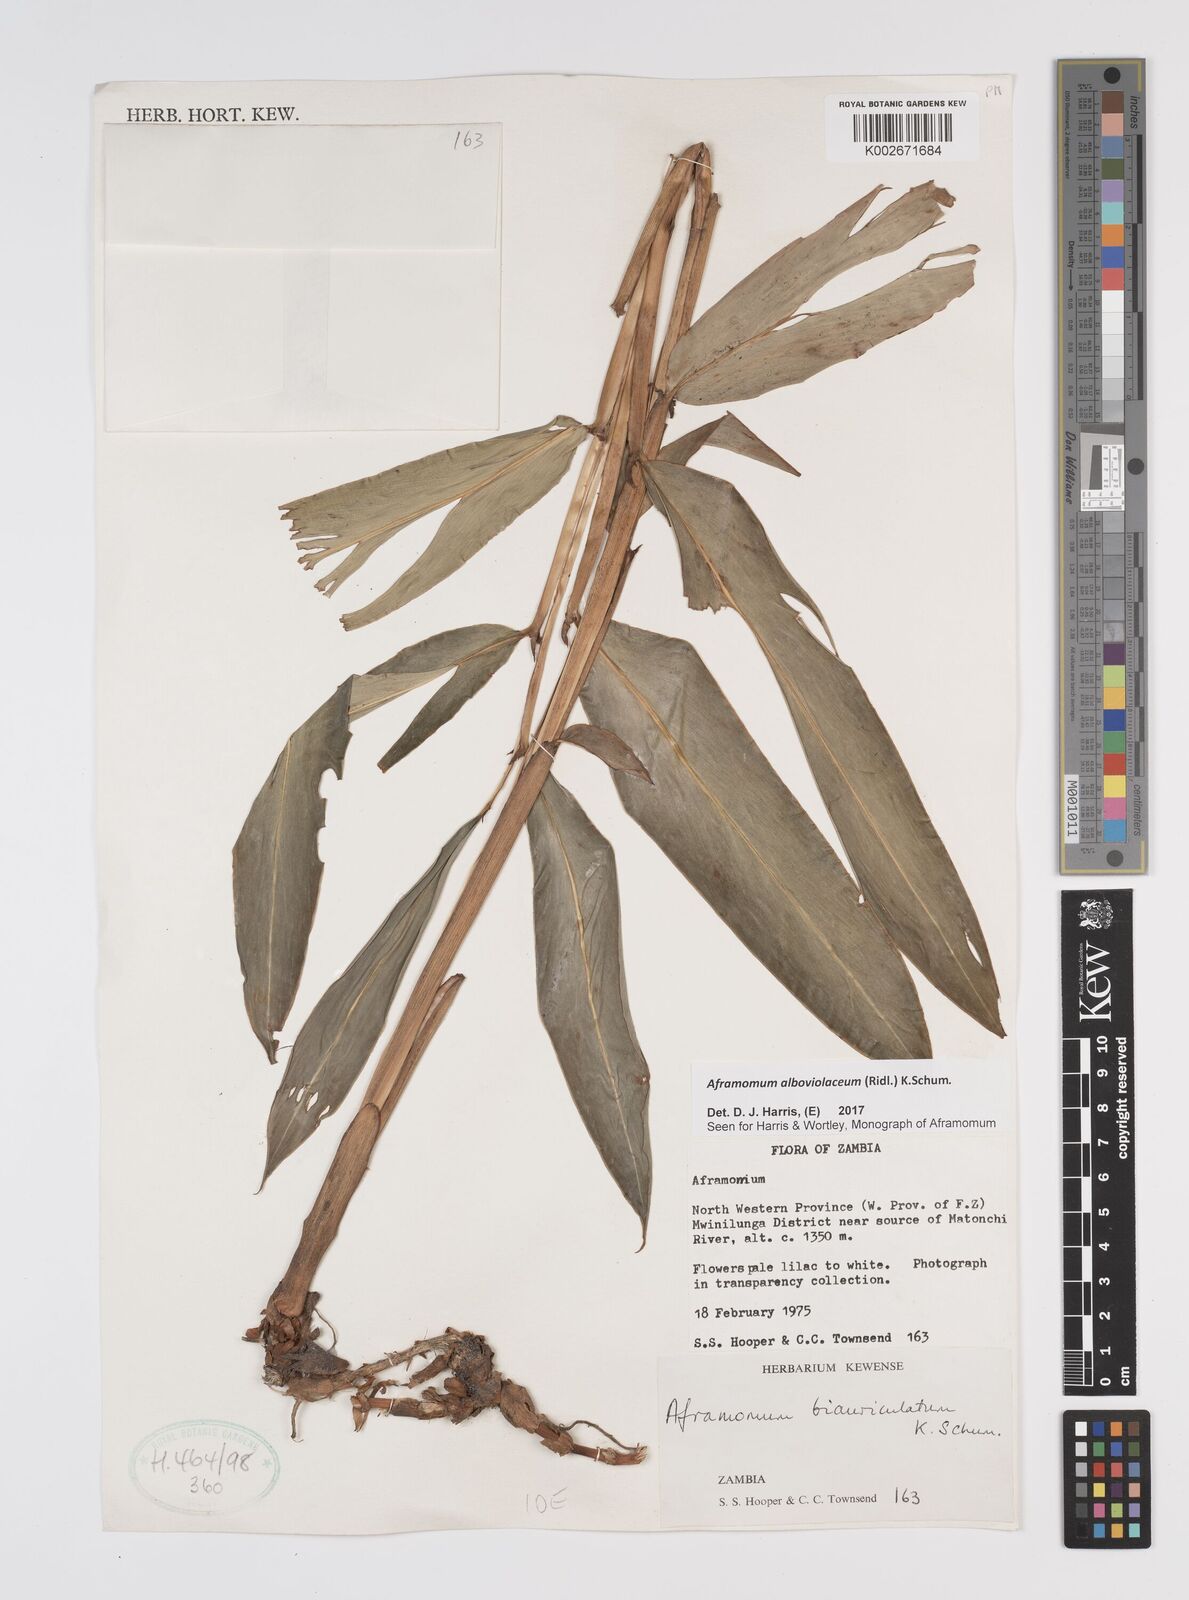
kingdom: Plantae
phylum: Tracheophyta
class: Liliopsida
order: Zingiberales
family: Zingiberaceae
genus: Aframomum
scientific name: Aframomum alboviolaceum
